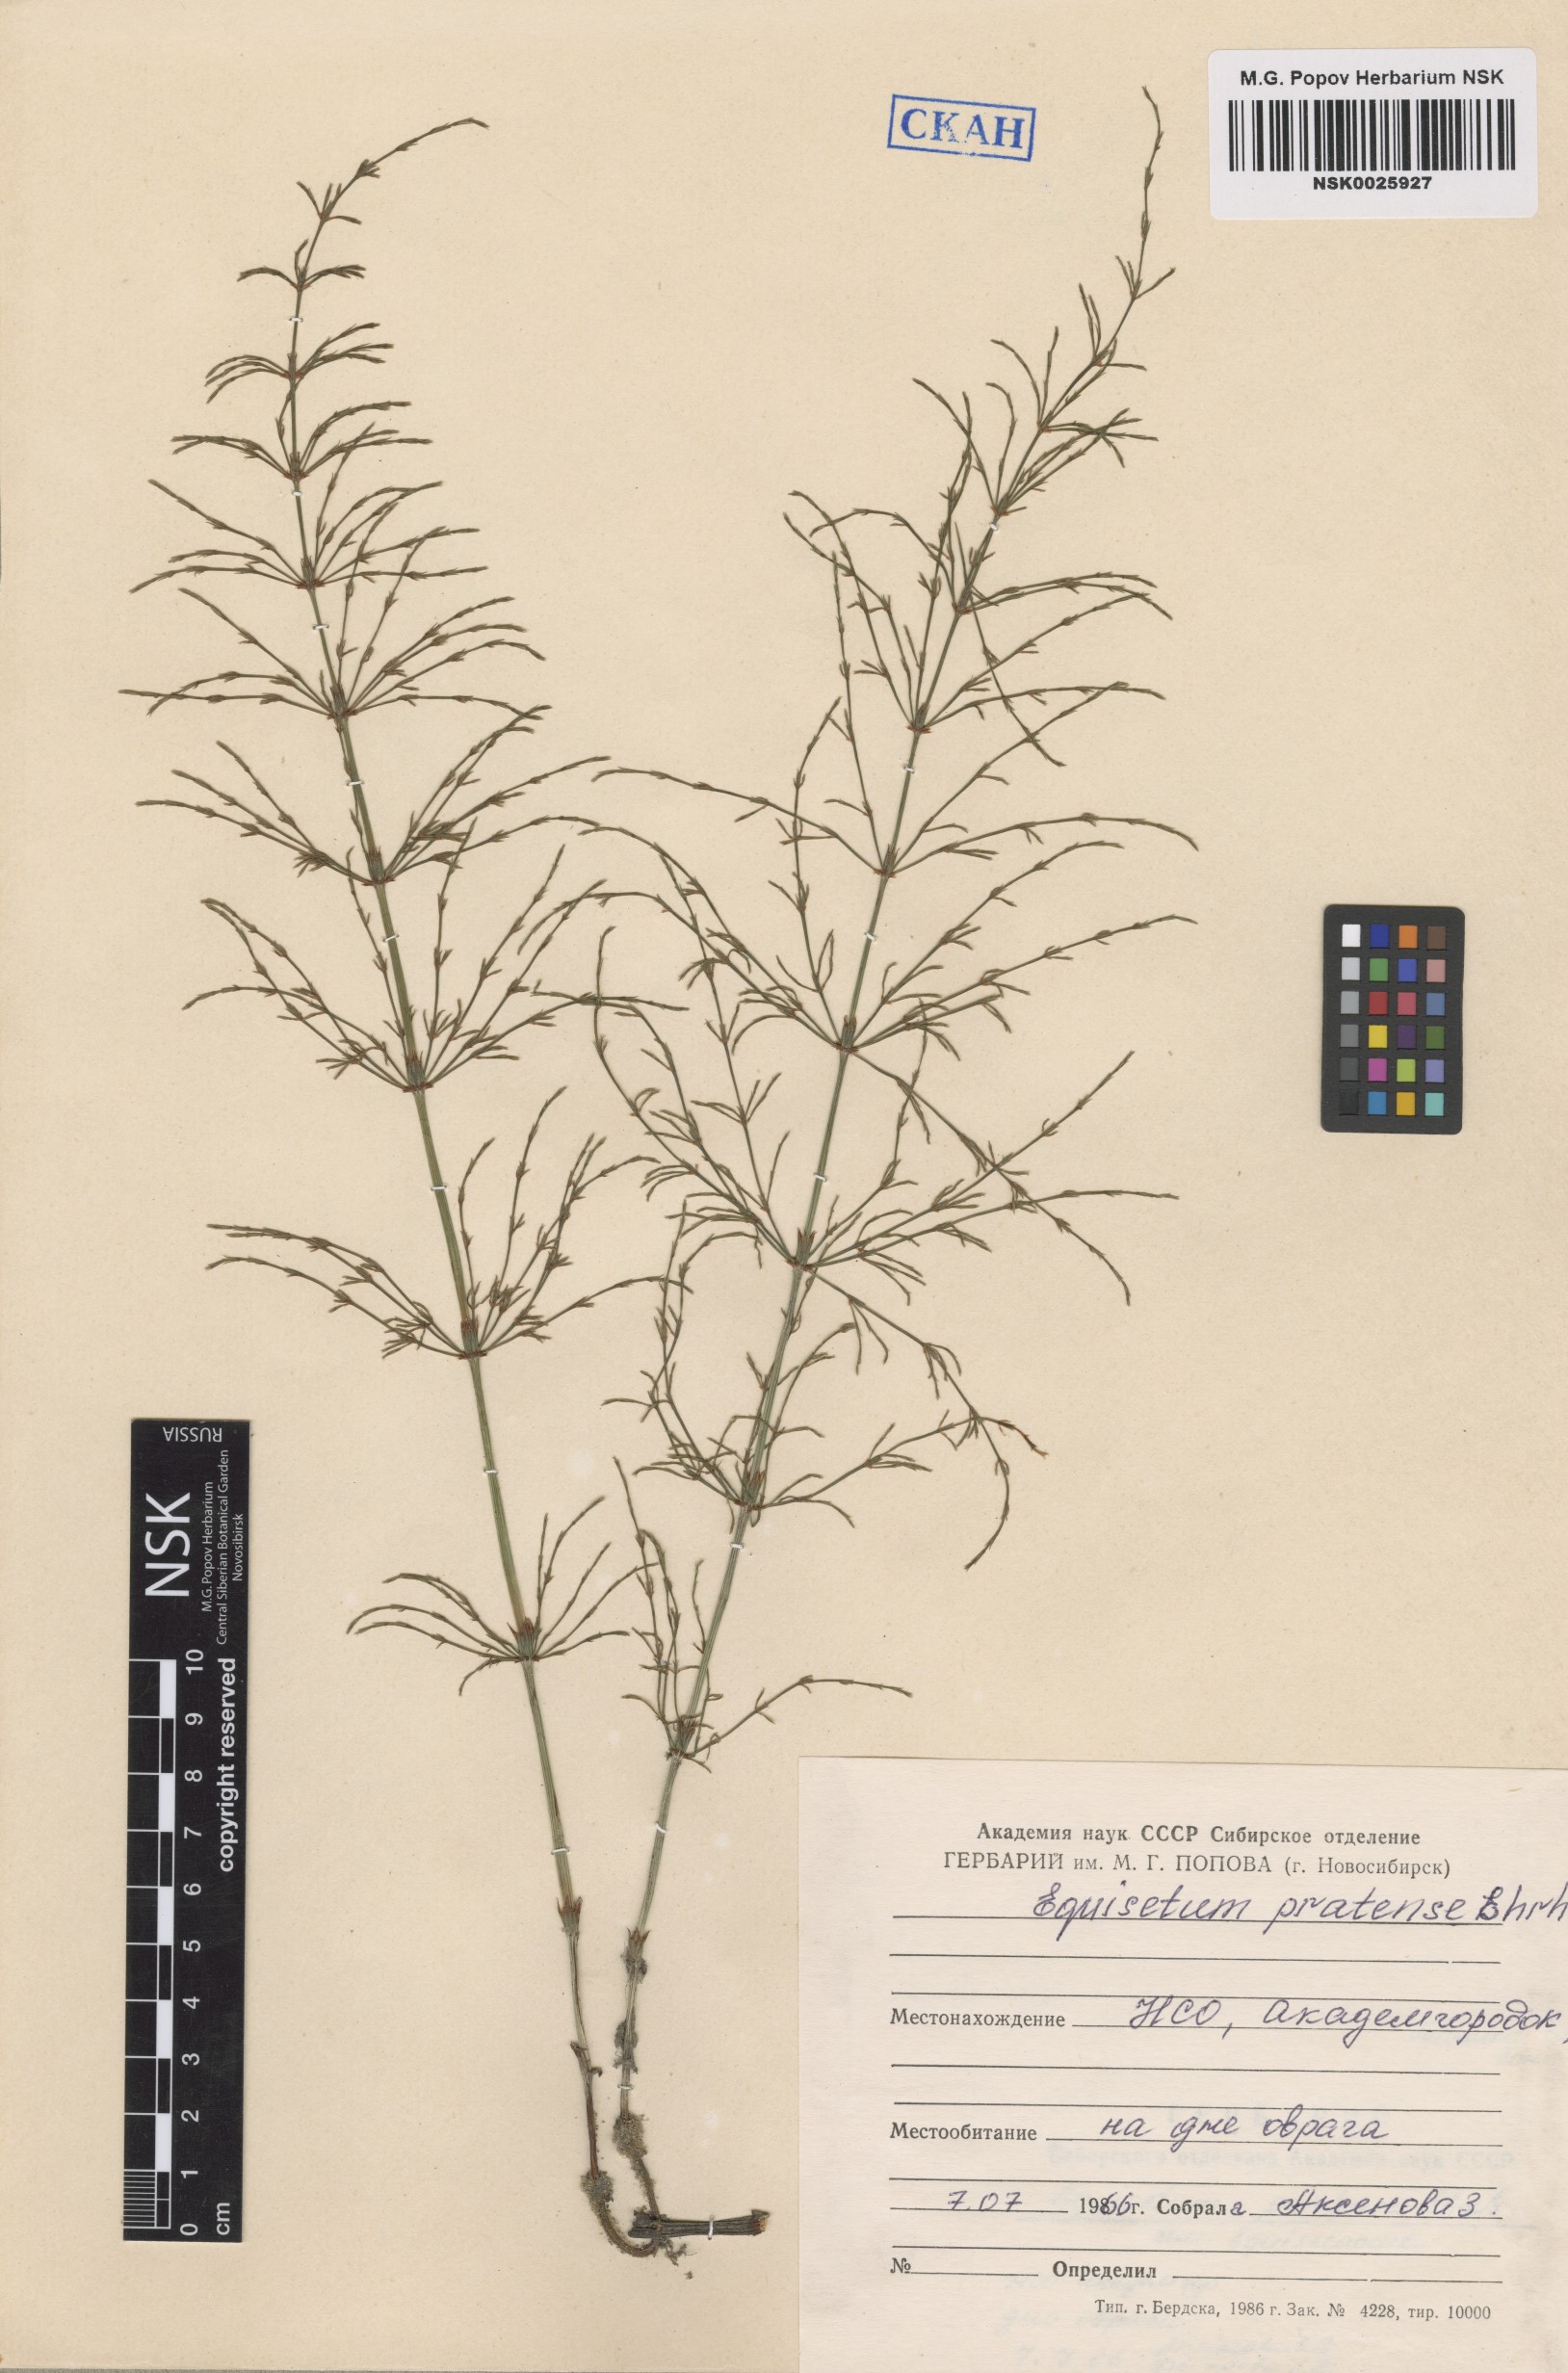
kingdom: Plantae
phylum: Tracheophyta
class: Polypodiopsida
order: Equisetales
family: Equisetaceae
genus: Equisetum
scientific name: Equisetum pratense
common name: Meadow horsetail
